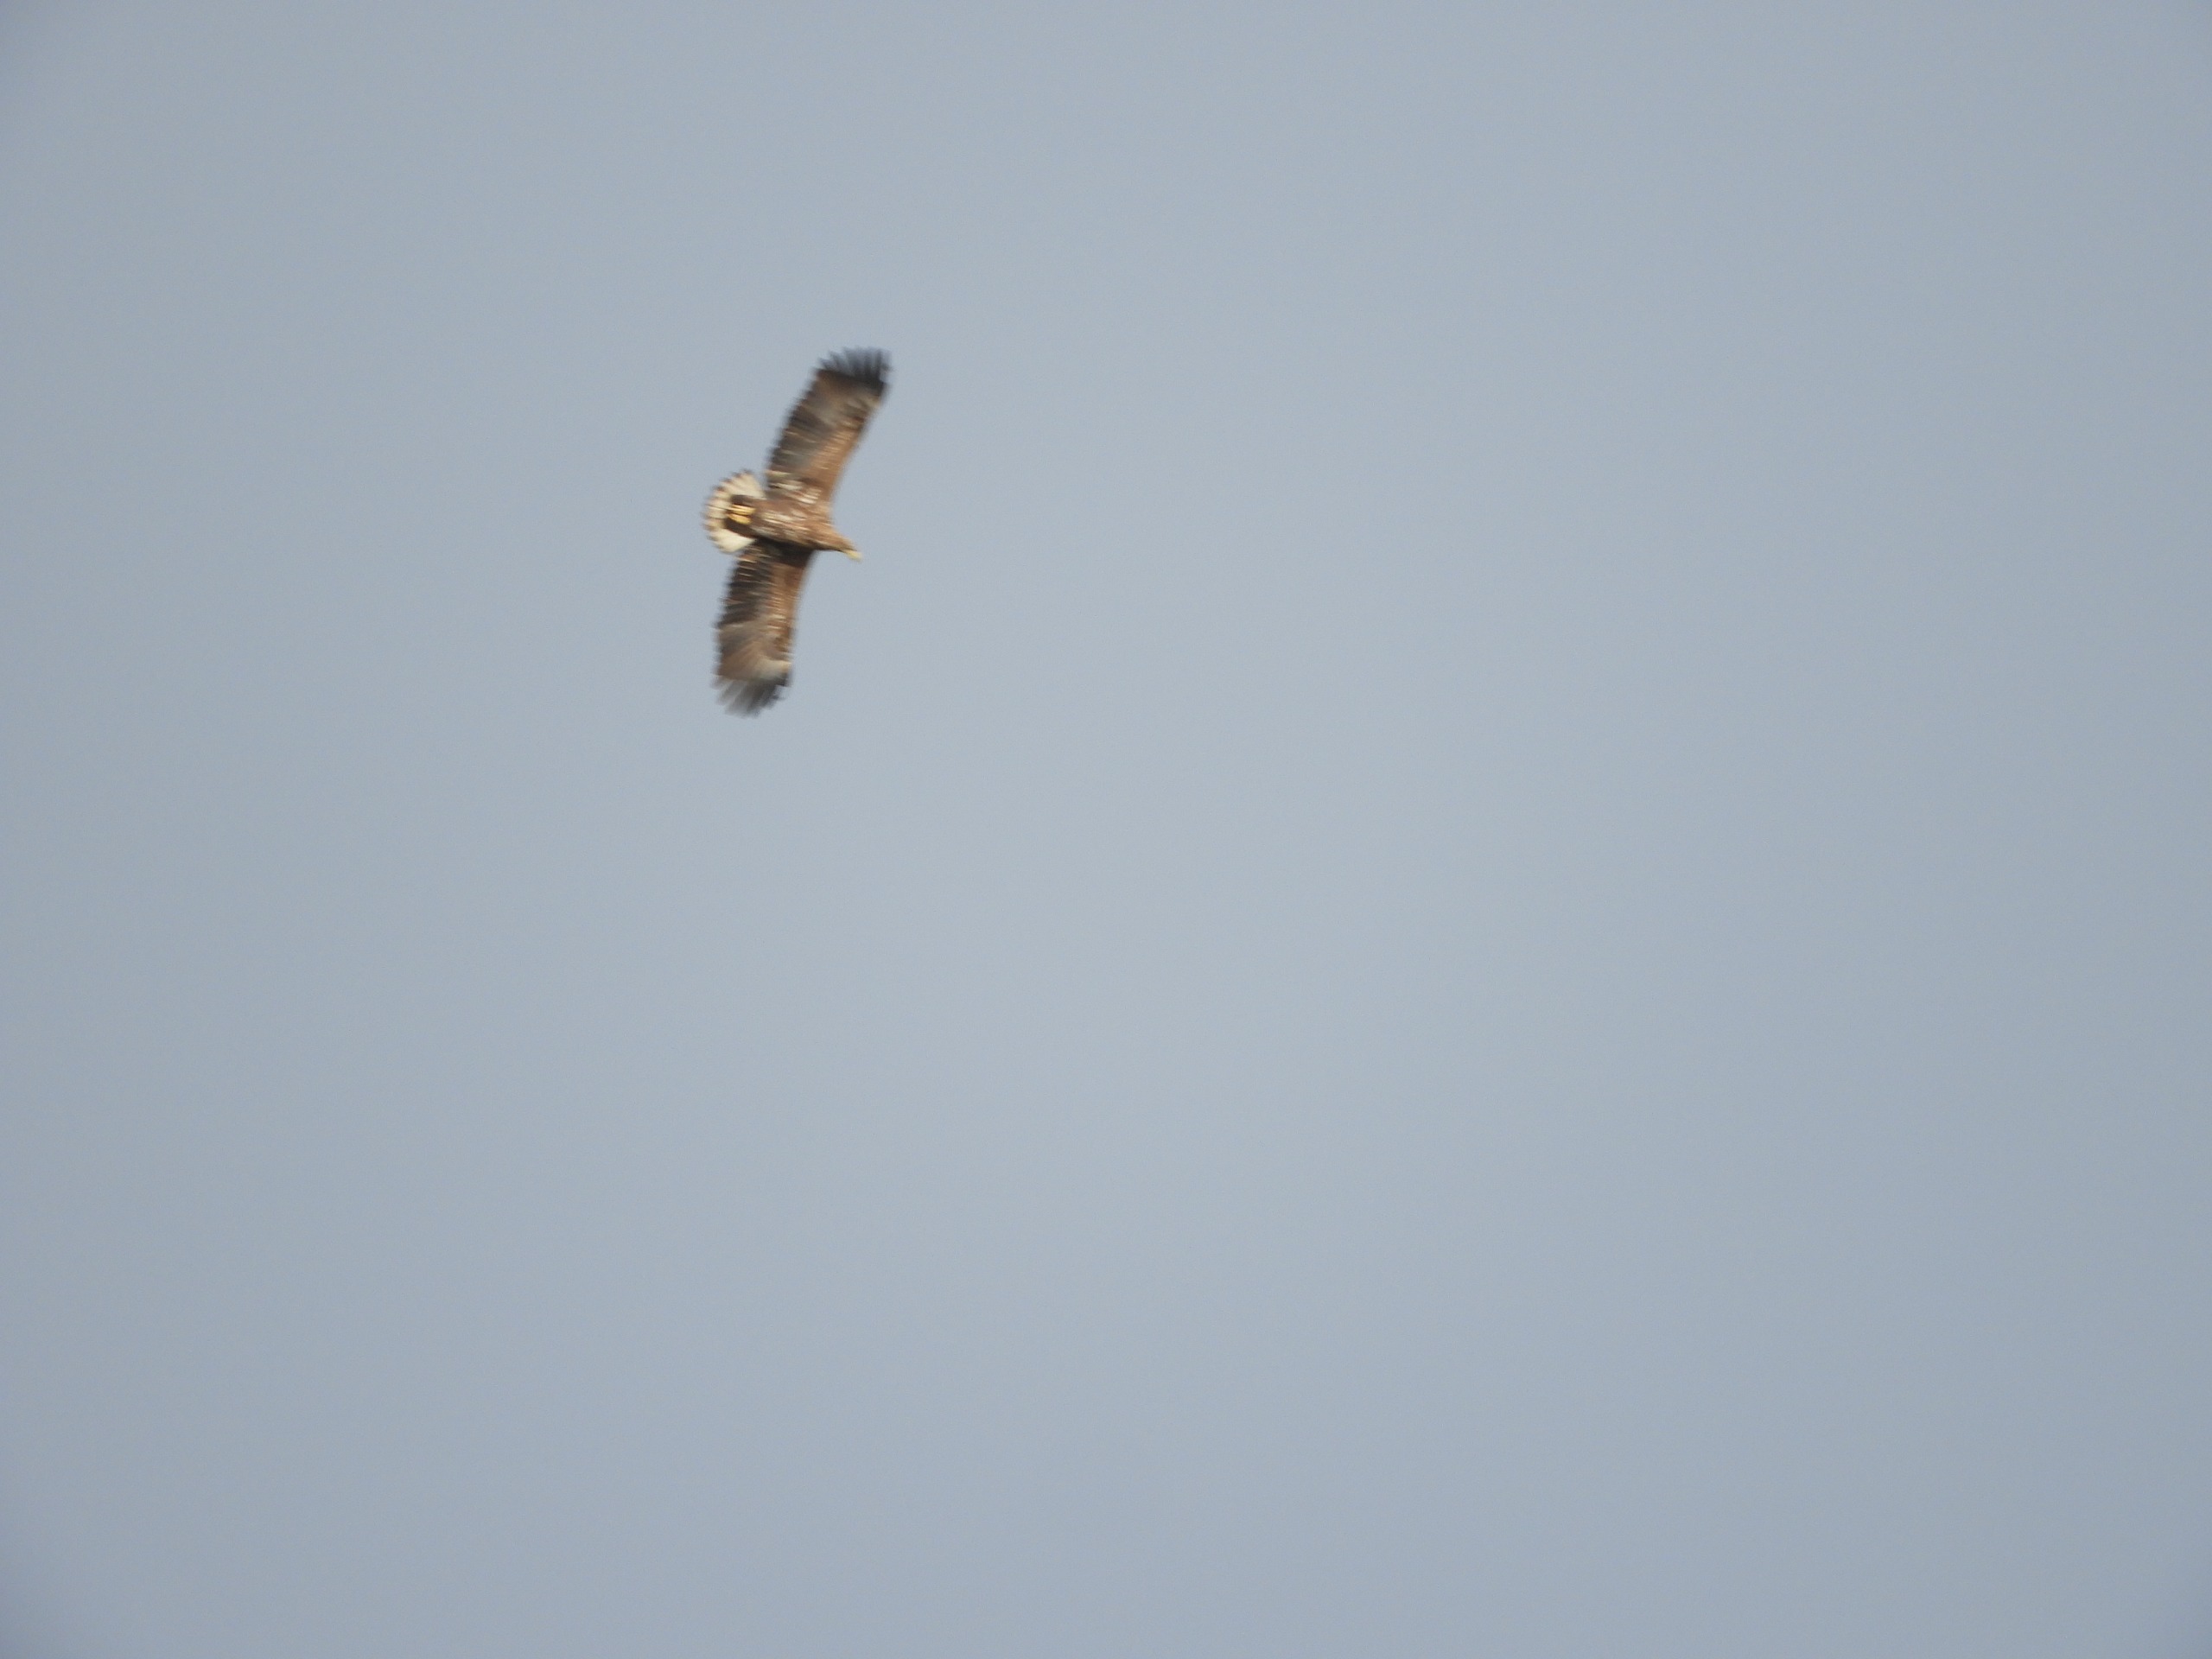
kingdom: Animalia
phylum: Chordata
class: Aves
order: Accipitriformes
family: Accipitridae
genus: Haliaeetus
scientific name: Haliaeetus albicilla
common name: Havørn
